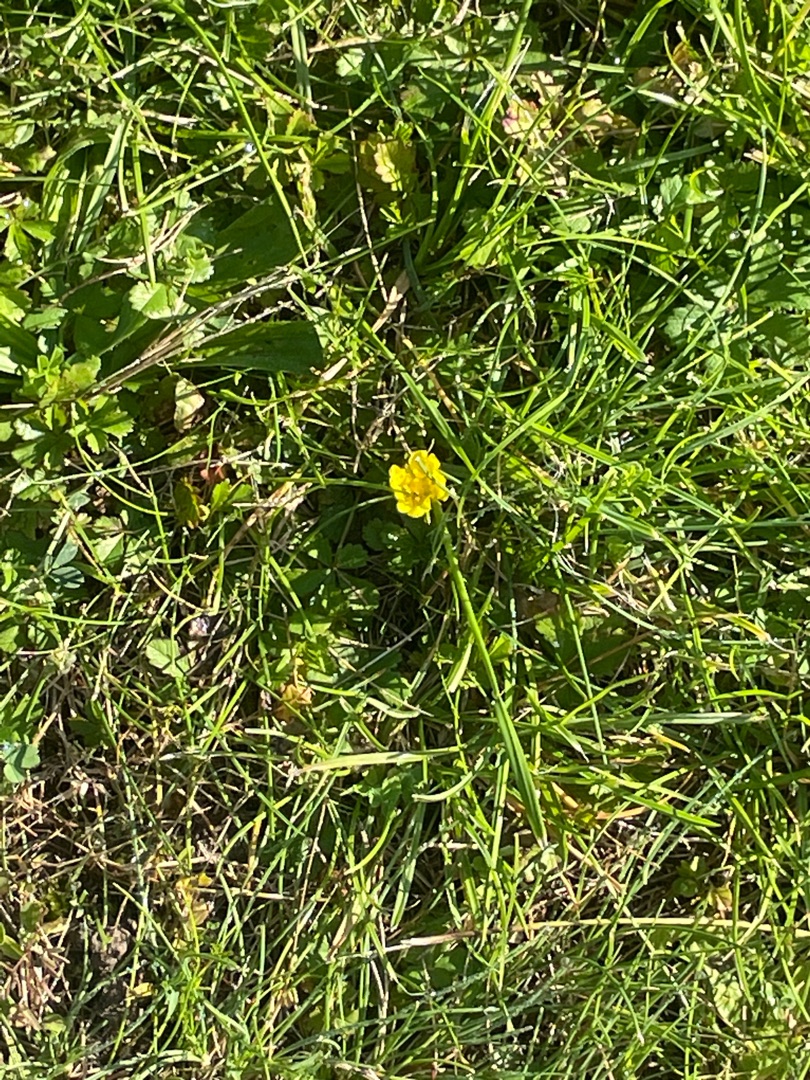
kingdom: Plantae
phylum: Tracheophyta
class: Magnoliopsida
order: Rosales
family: Rosaceae
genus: Potentilla
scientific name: Potentilla reptans
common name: Krybende potentil
